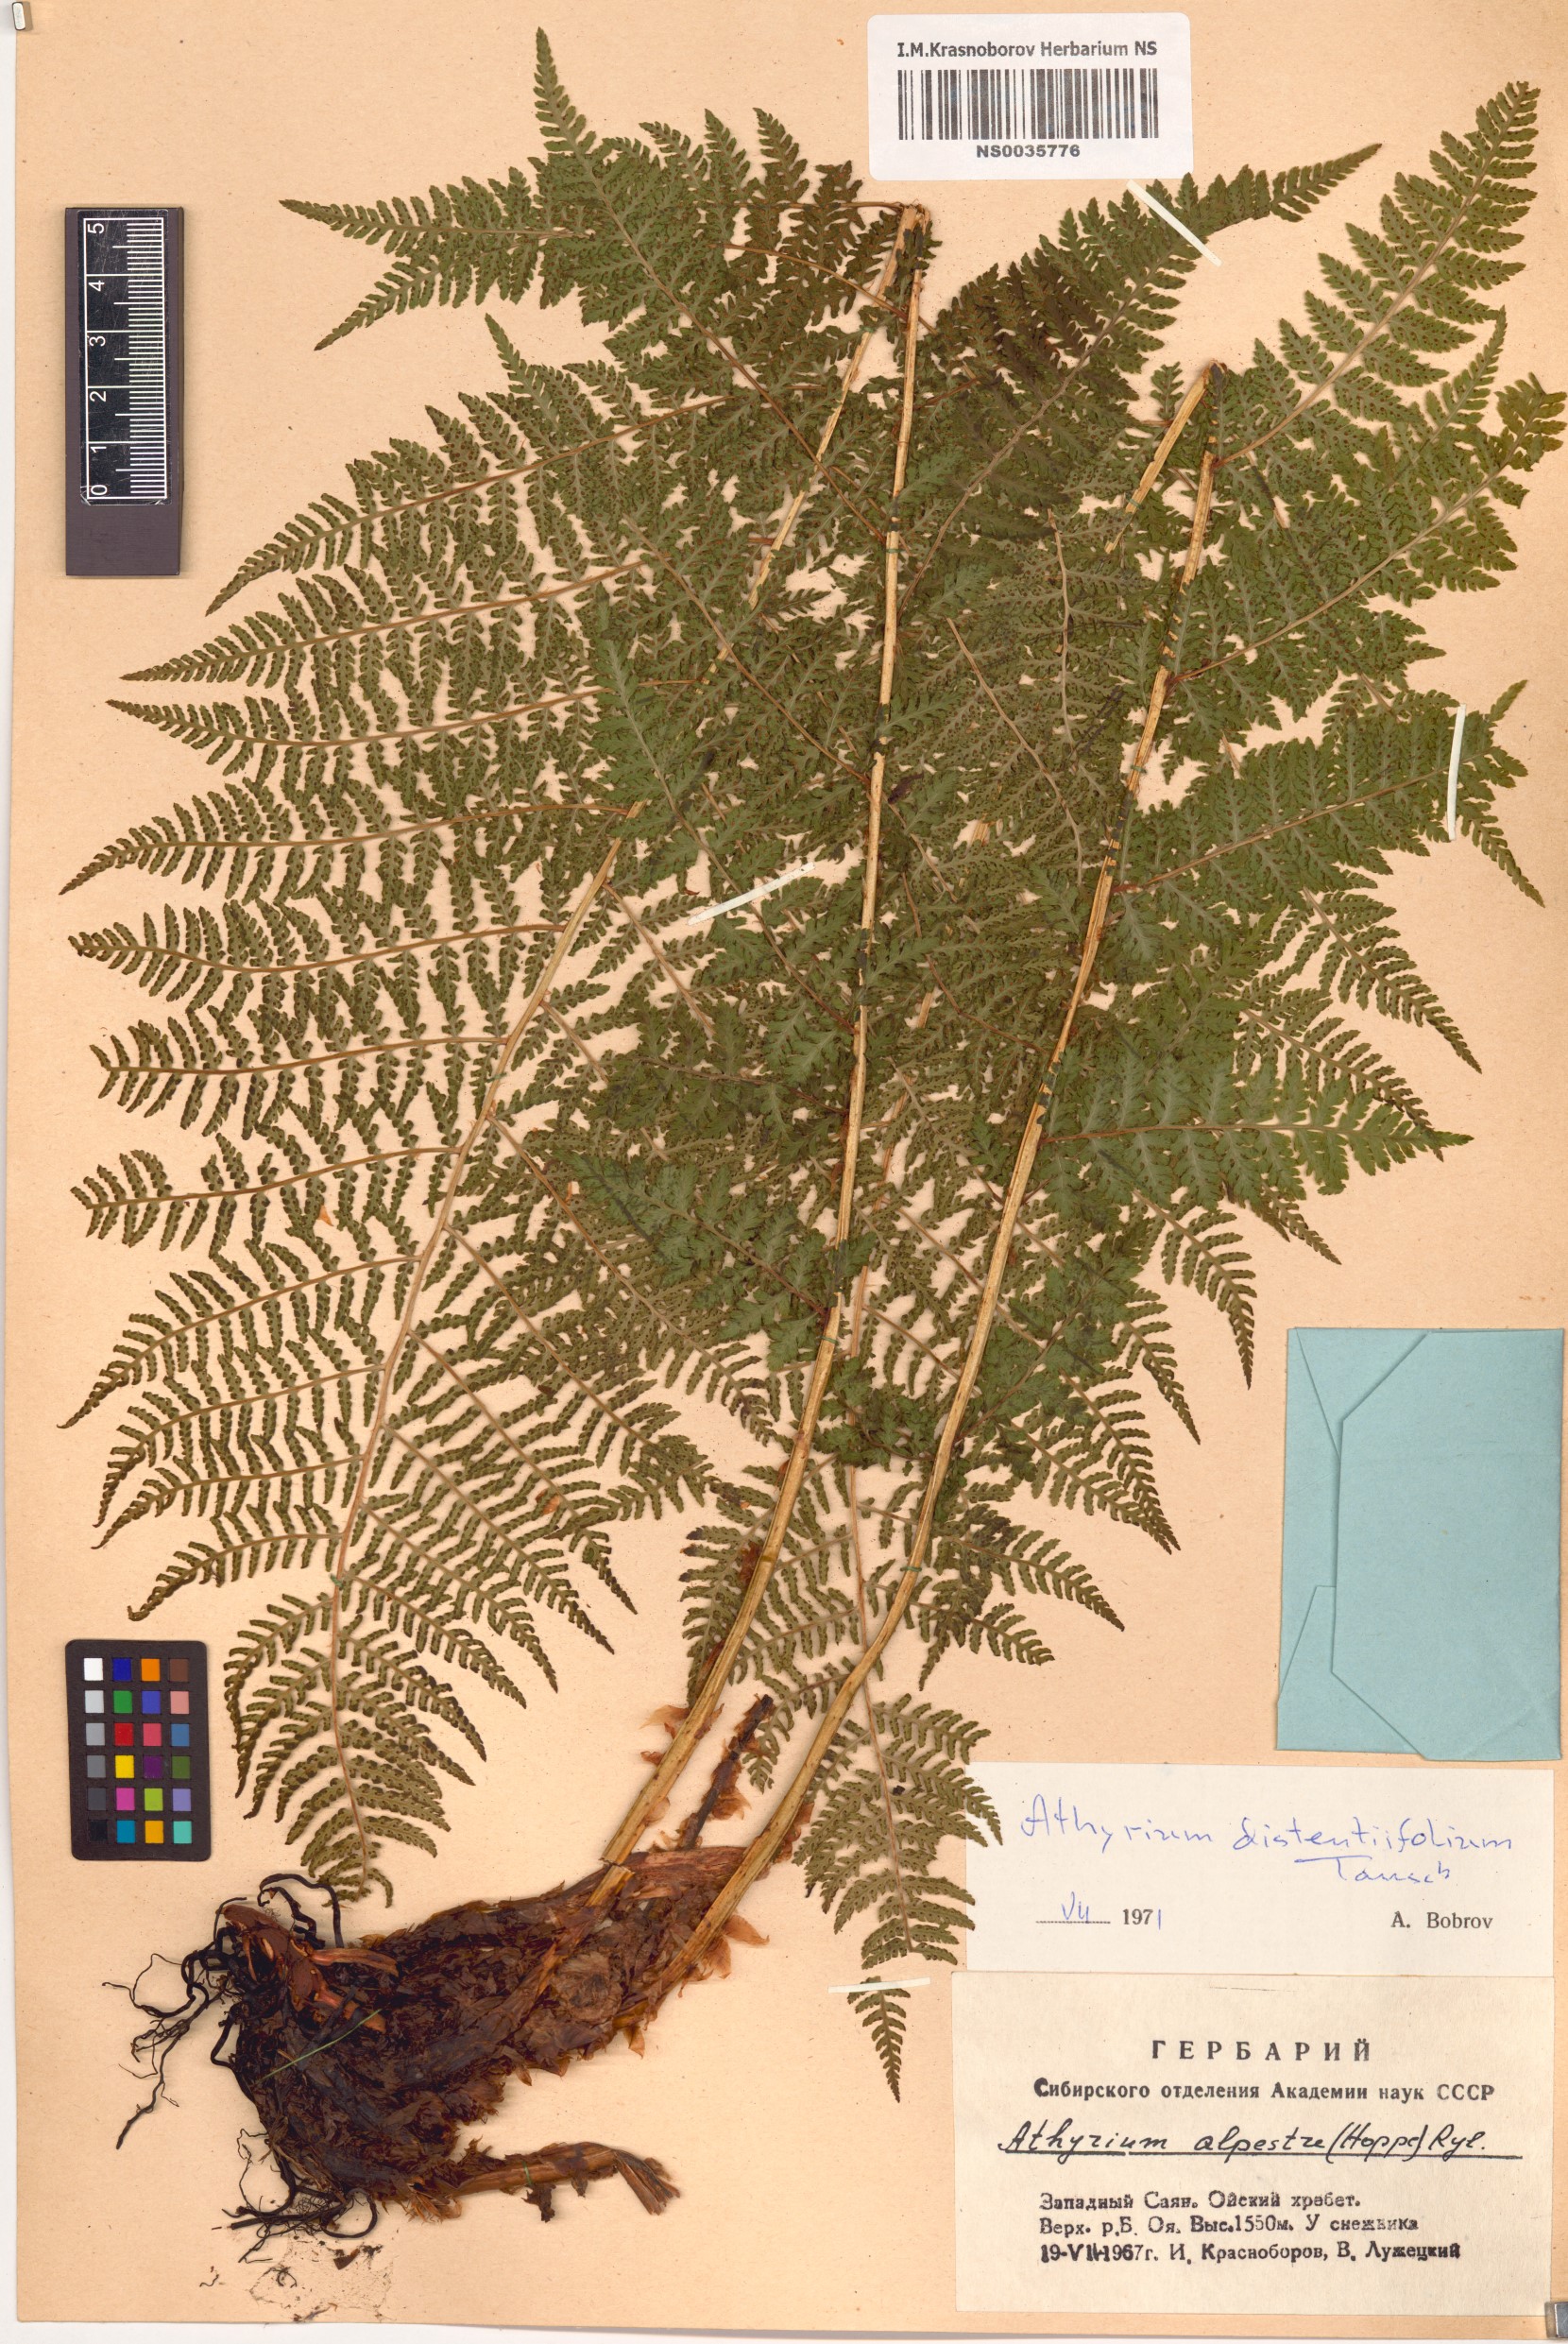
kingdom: Plantae
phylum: Tracheophyta
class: Polypodiopsida
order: Polypodiales
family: Athyriaceae
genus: Pseudathyrium
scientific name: Pseudathyrium alpestre
